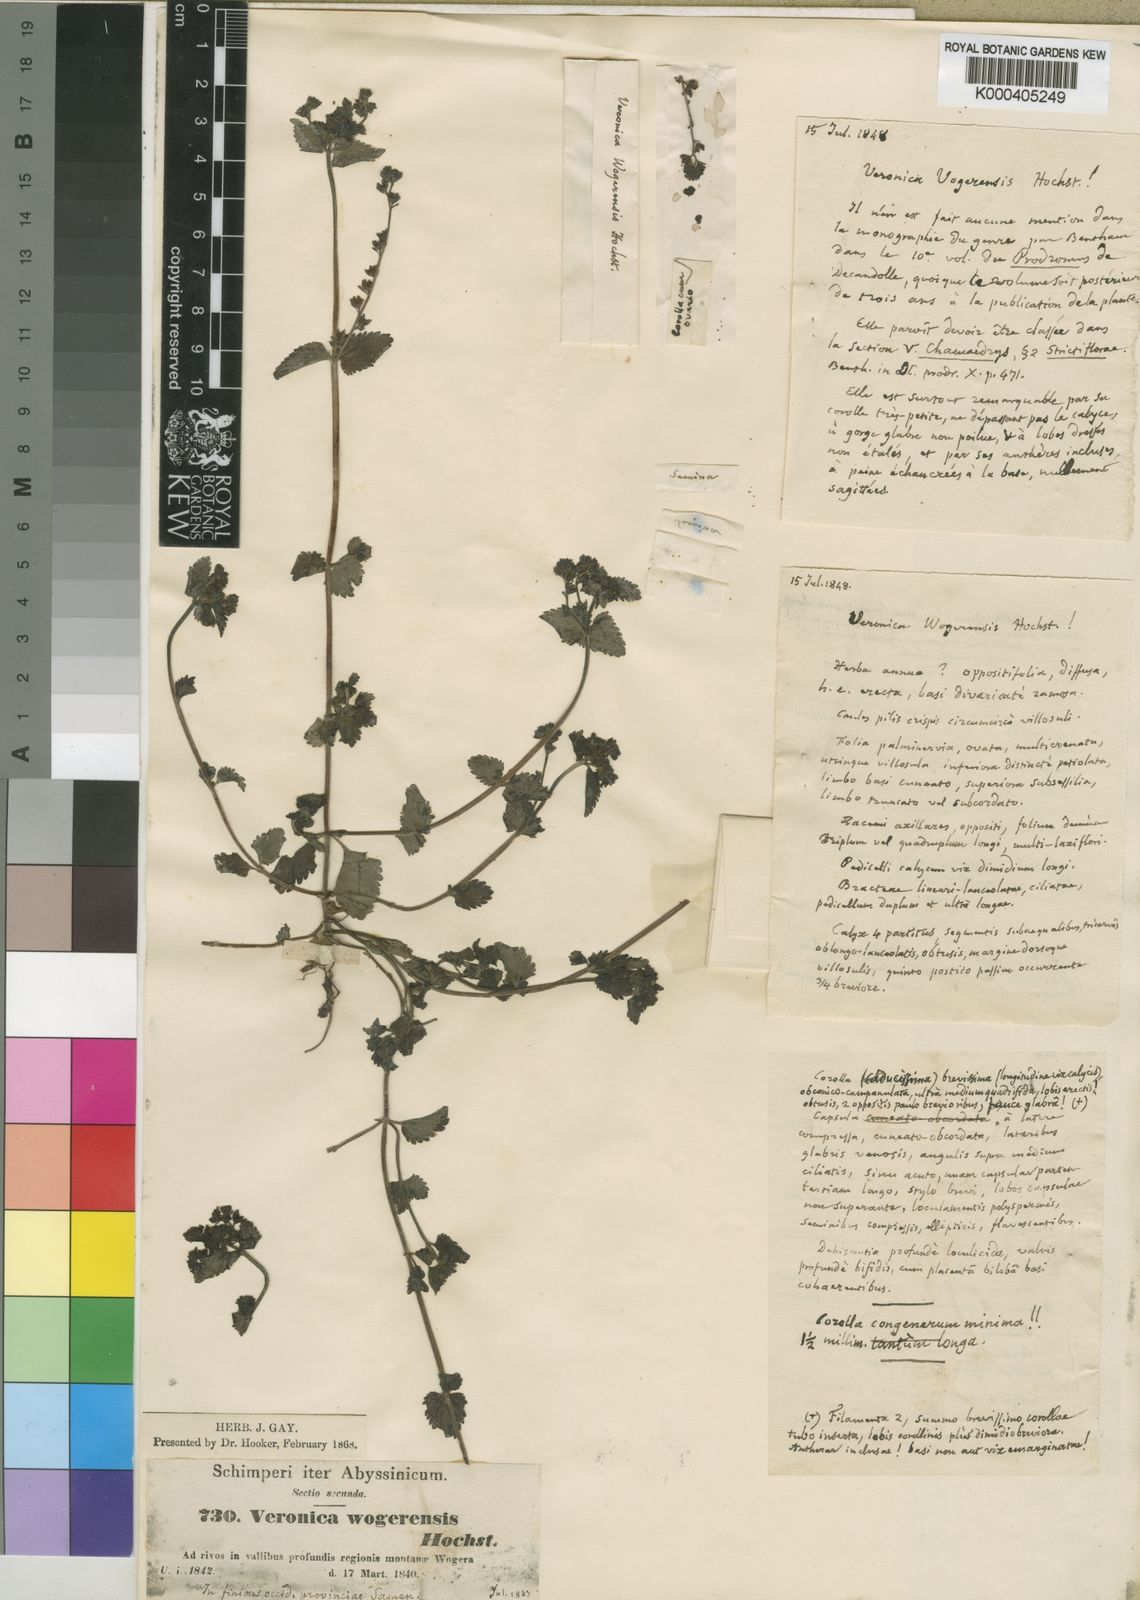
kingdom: Plantae
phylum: Tracheophyta
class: Magnoliopsida
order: Lamiales
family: Plantaginaceae
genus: Veronica
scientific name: Veronica javanica
